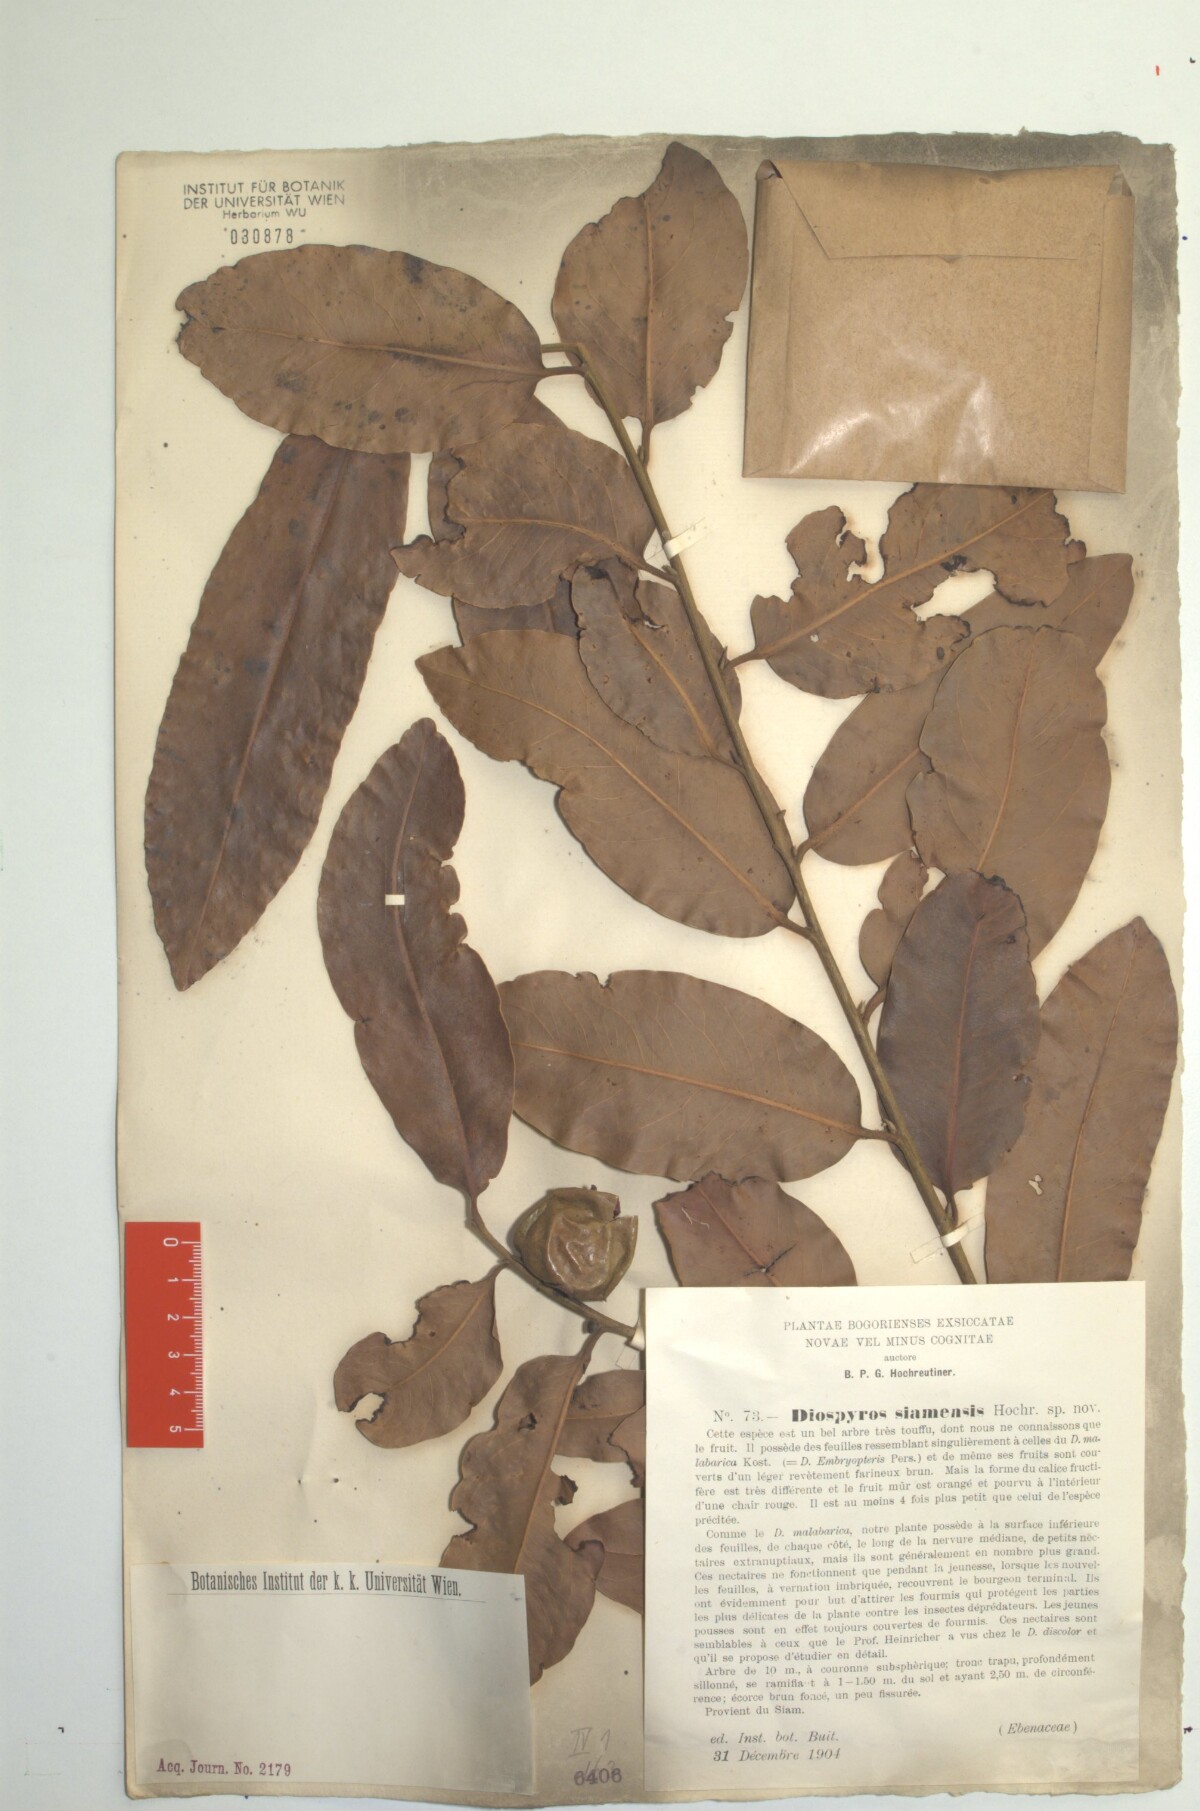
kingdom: Plantae
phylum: Tracheophyta
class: Magnoliopsida
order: Ericales
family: Ebenaceae
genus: Diospyros
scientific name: Diospyros malabarica
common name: Mountain ebony
